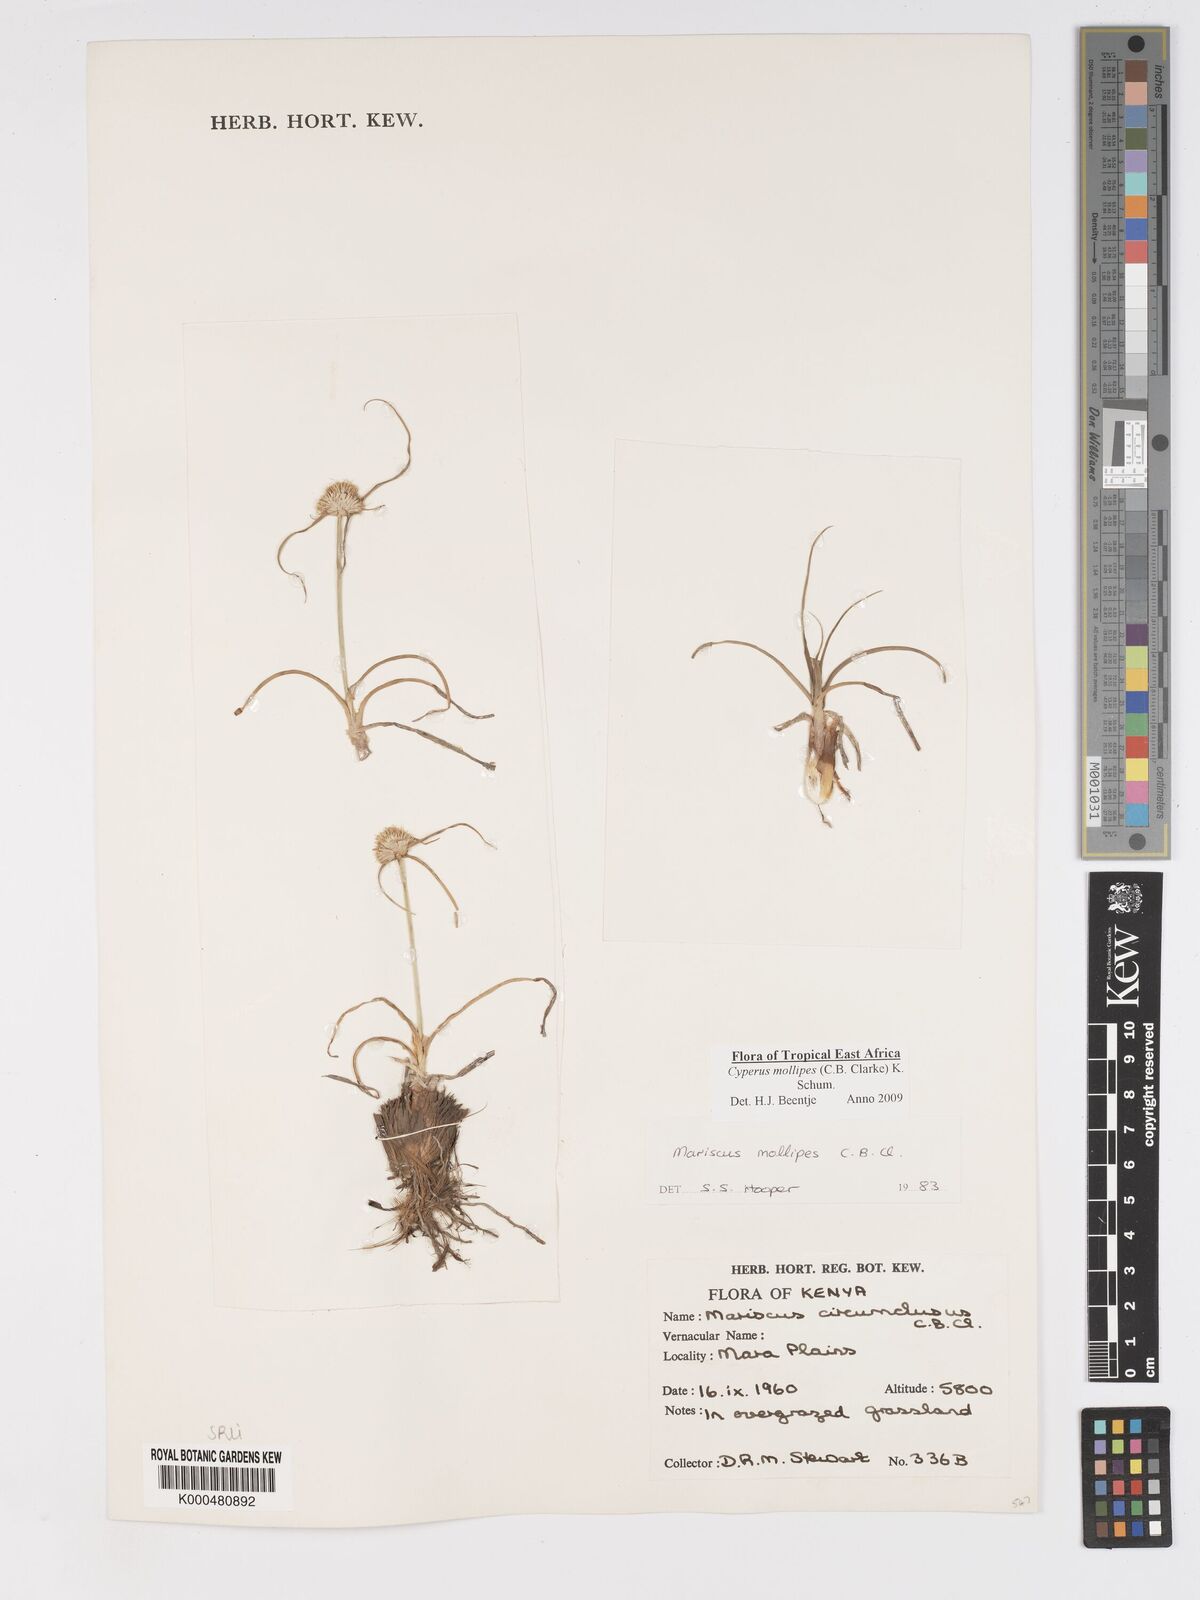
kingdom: Plantae
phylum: Tracheophyta
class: Liliopsida
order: Poales
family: Cyperaceae
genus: Cyperus
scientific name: Cyperus mollipes
